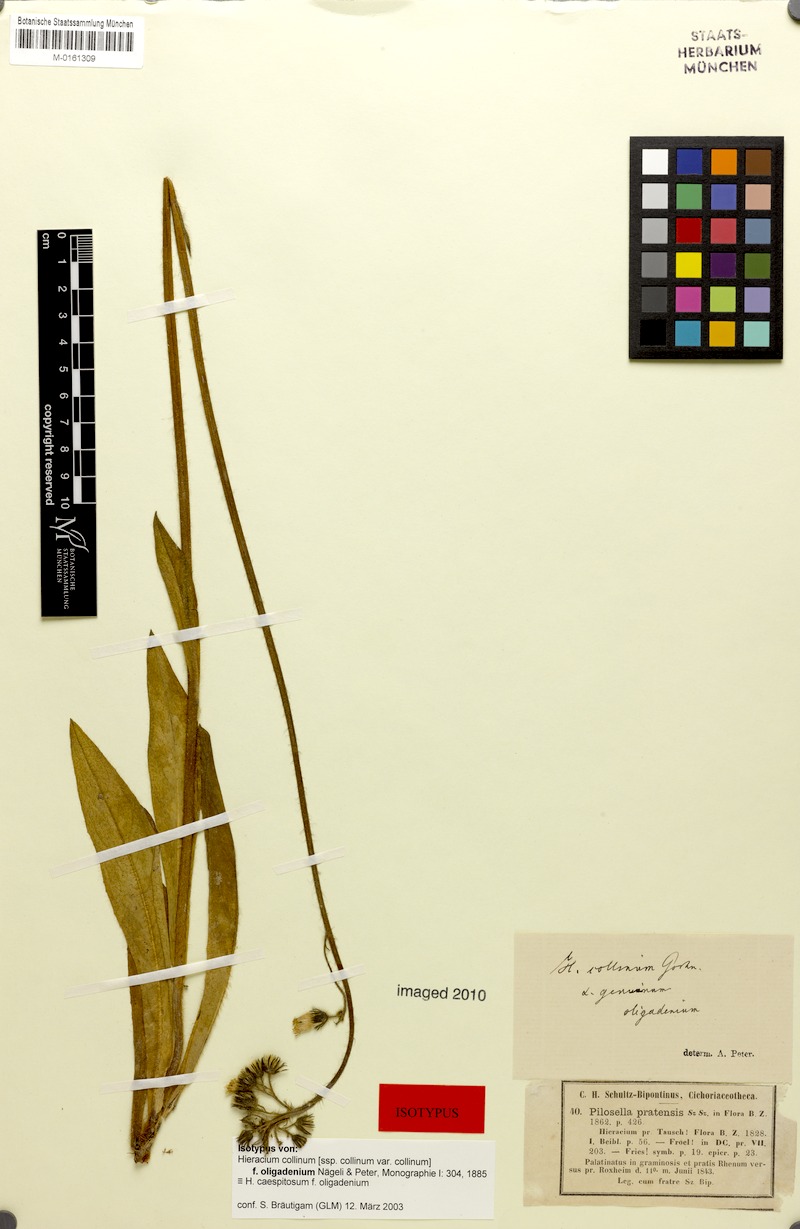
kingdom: Plantae
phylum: Tracheophyta
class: Magnoliopsida
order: Asterales
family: Asteraceae
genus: Pilosella
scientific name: Pilosella caespitosa
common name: Yellow fox-and-cubs
